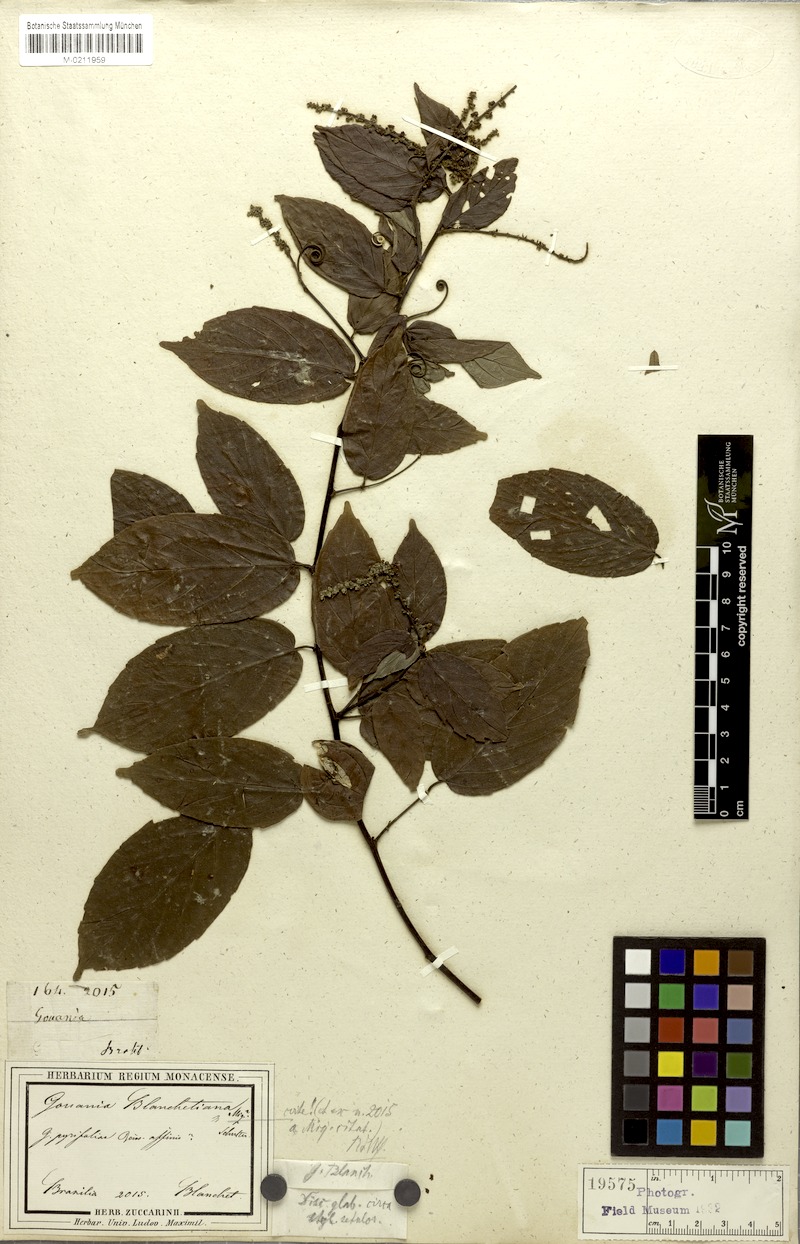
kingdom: Plantae
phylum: Tracheophyta
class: Magnoliopsida
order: Rosales
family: Rhamnaceae
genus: Gouania
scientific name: Gouania blanchetiana
